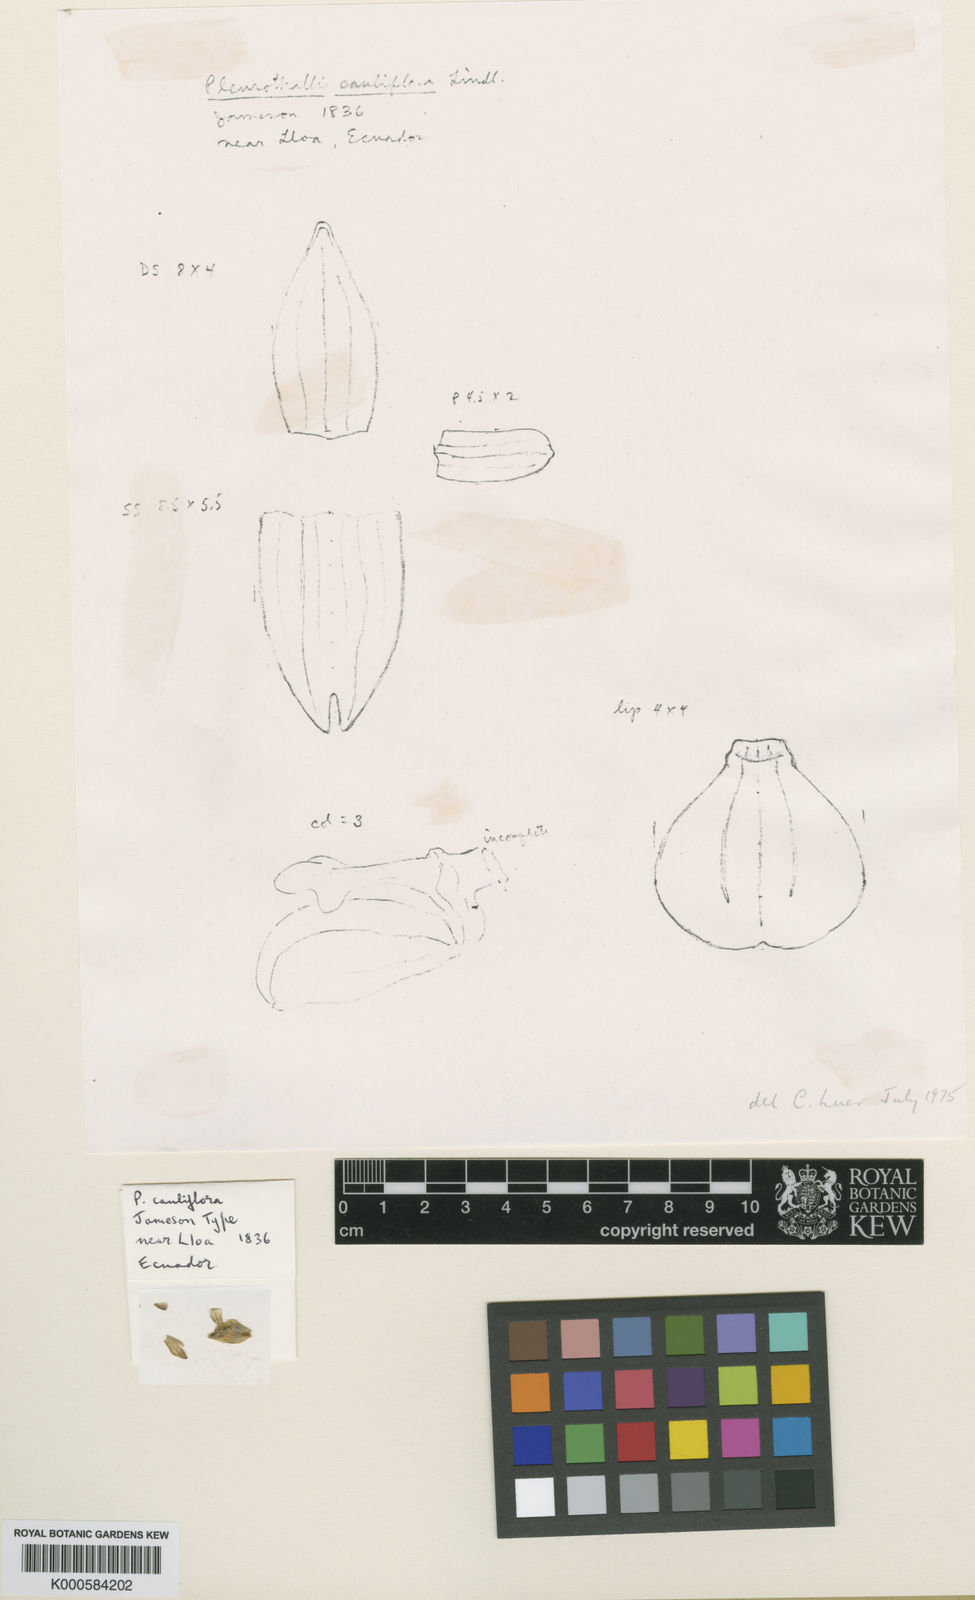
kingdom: Plantae
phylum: Tracheophyta
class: Liliopsida
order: Asparagales
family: Orchidaceae
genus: Stelis
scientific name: Stelis cauliflora
